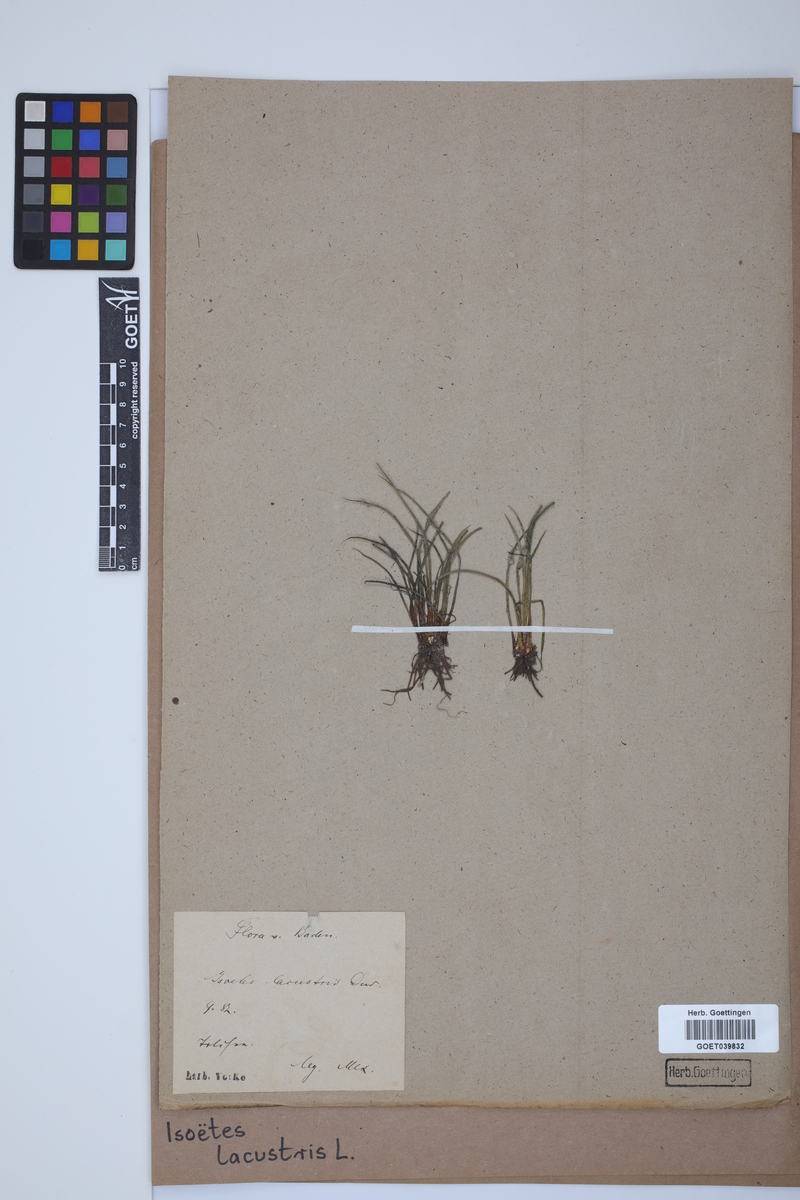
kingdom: Plantae
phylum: Tracheophyta
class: Lycopodiopsida
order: Isoetales
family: Isoetaceae
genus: Isoetes
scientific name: Isoetes lacustris
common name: Common quillwort
